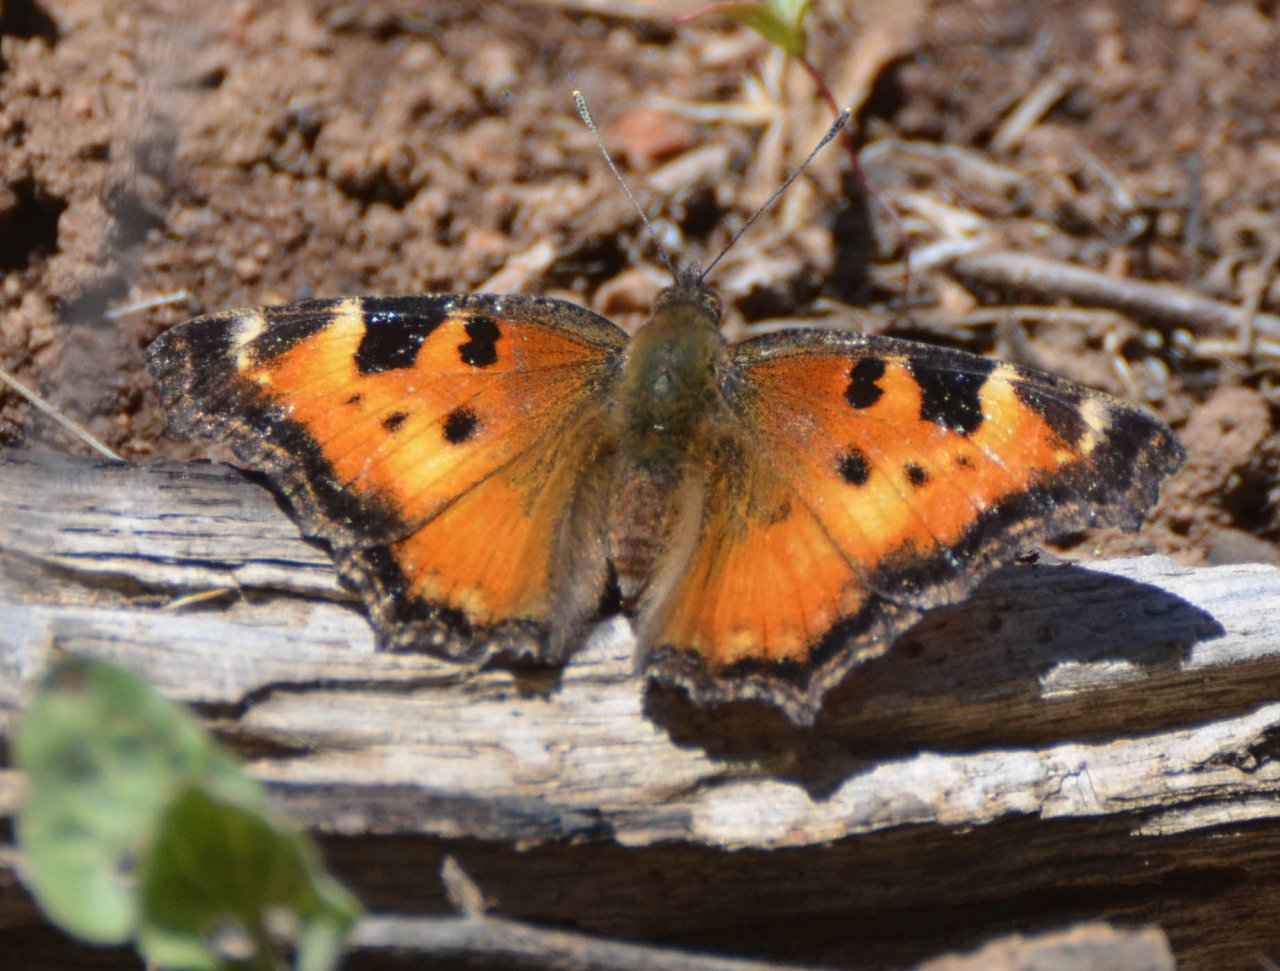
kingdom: Animalia
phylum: Arthropoda
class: Insecta
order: Lepidoptera
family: Nymphalidae
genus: Nymphalis
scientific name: Nymphalis californica
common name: California Tortoiseshell
